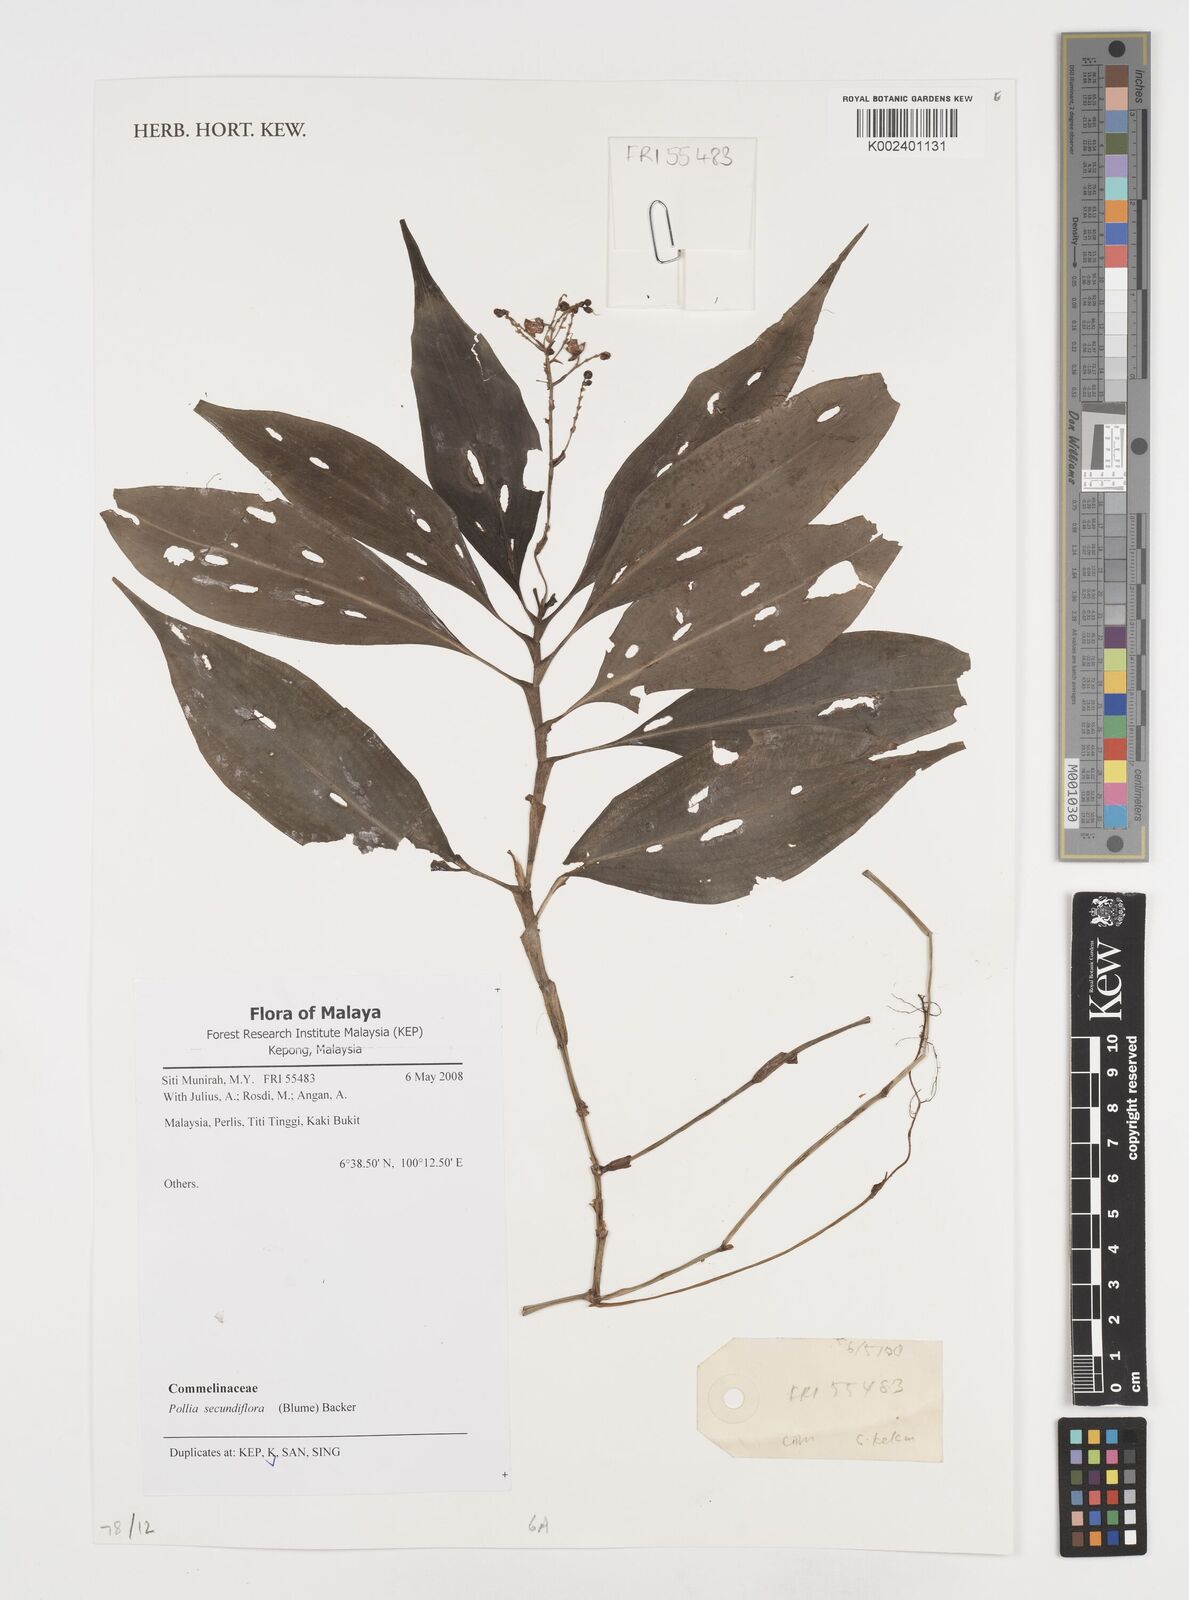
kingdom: Plantae
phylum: Tracheophyta
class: Liliopsida
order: Commelinales
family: Commelinaceae
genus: Pollia
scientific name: Pollia secundiflora
